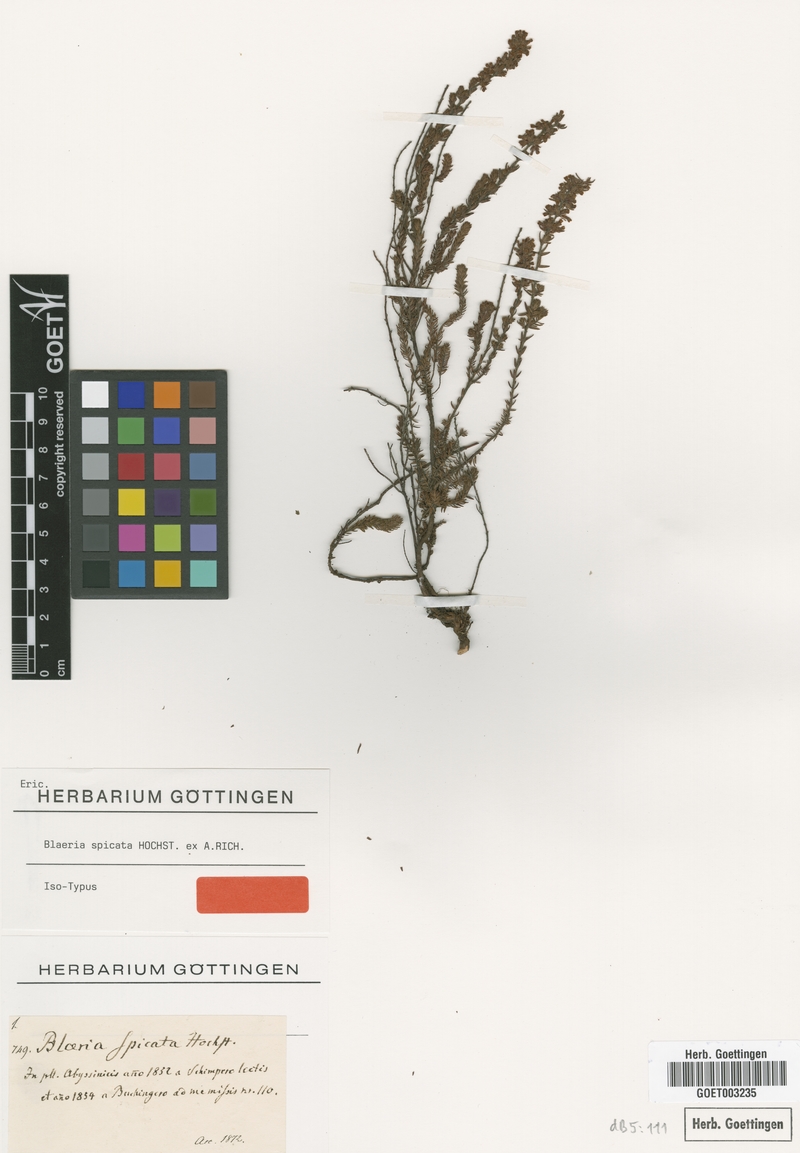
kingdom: Plantae
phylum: Tracheophyta
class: Magnoliopsida
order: Ericales
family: Ericaceae
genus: Erica
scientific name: Erica silvatica
